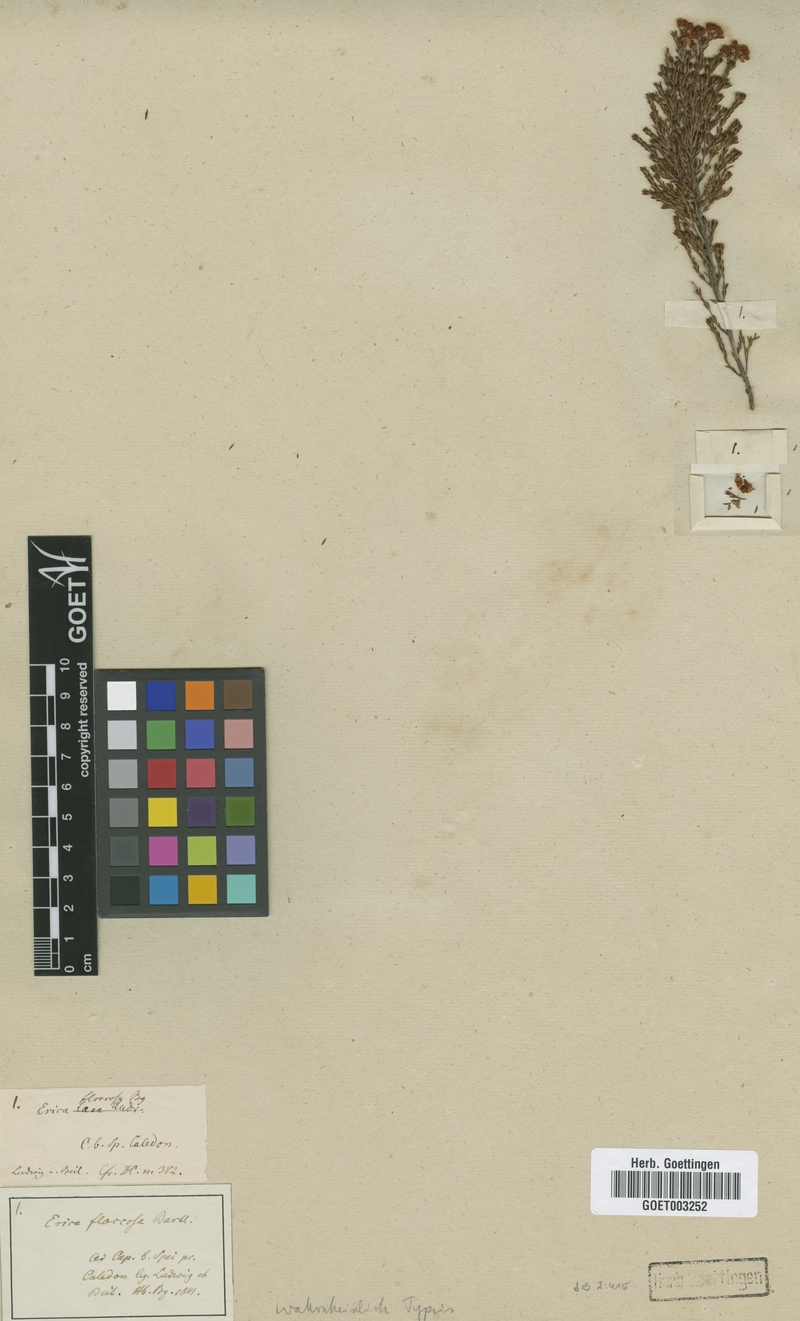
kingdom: Plantae
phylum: Tracheophyta
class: Magnoliopsida
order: Ericales
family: Ericaceae
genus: Erica
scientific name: Erica floccifera
